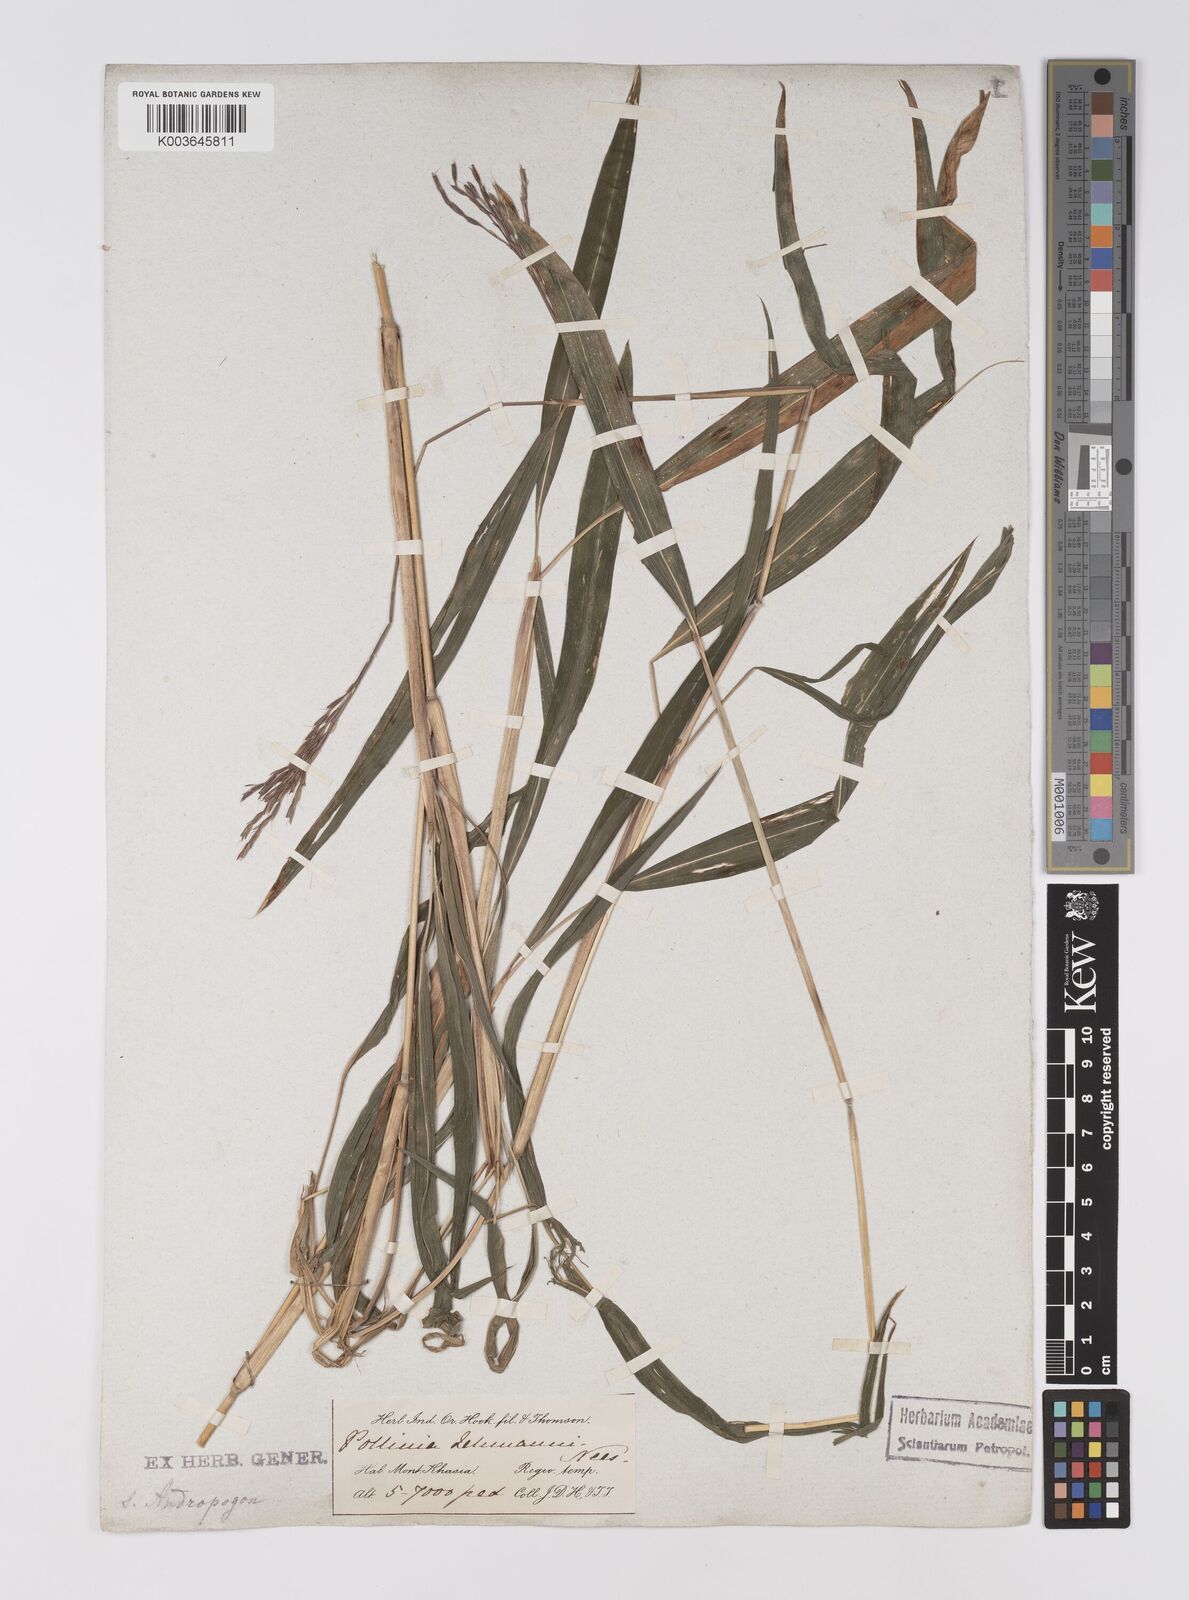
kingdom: Plantae
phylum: Tracheophyta
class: Liliopsida
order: Poales
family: Poaceae
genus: Microstegium
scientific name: Microstegium petiolare
